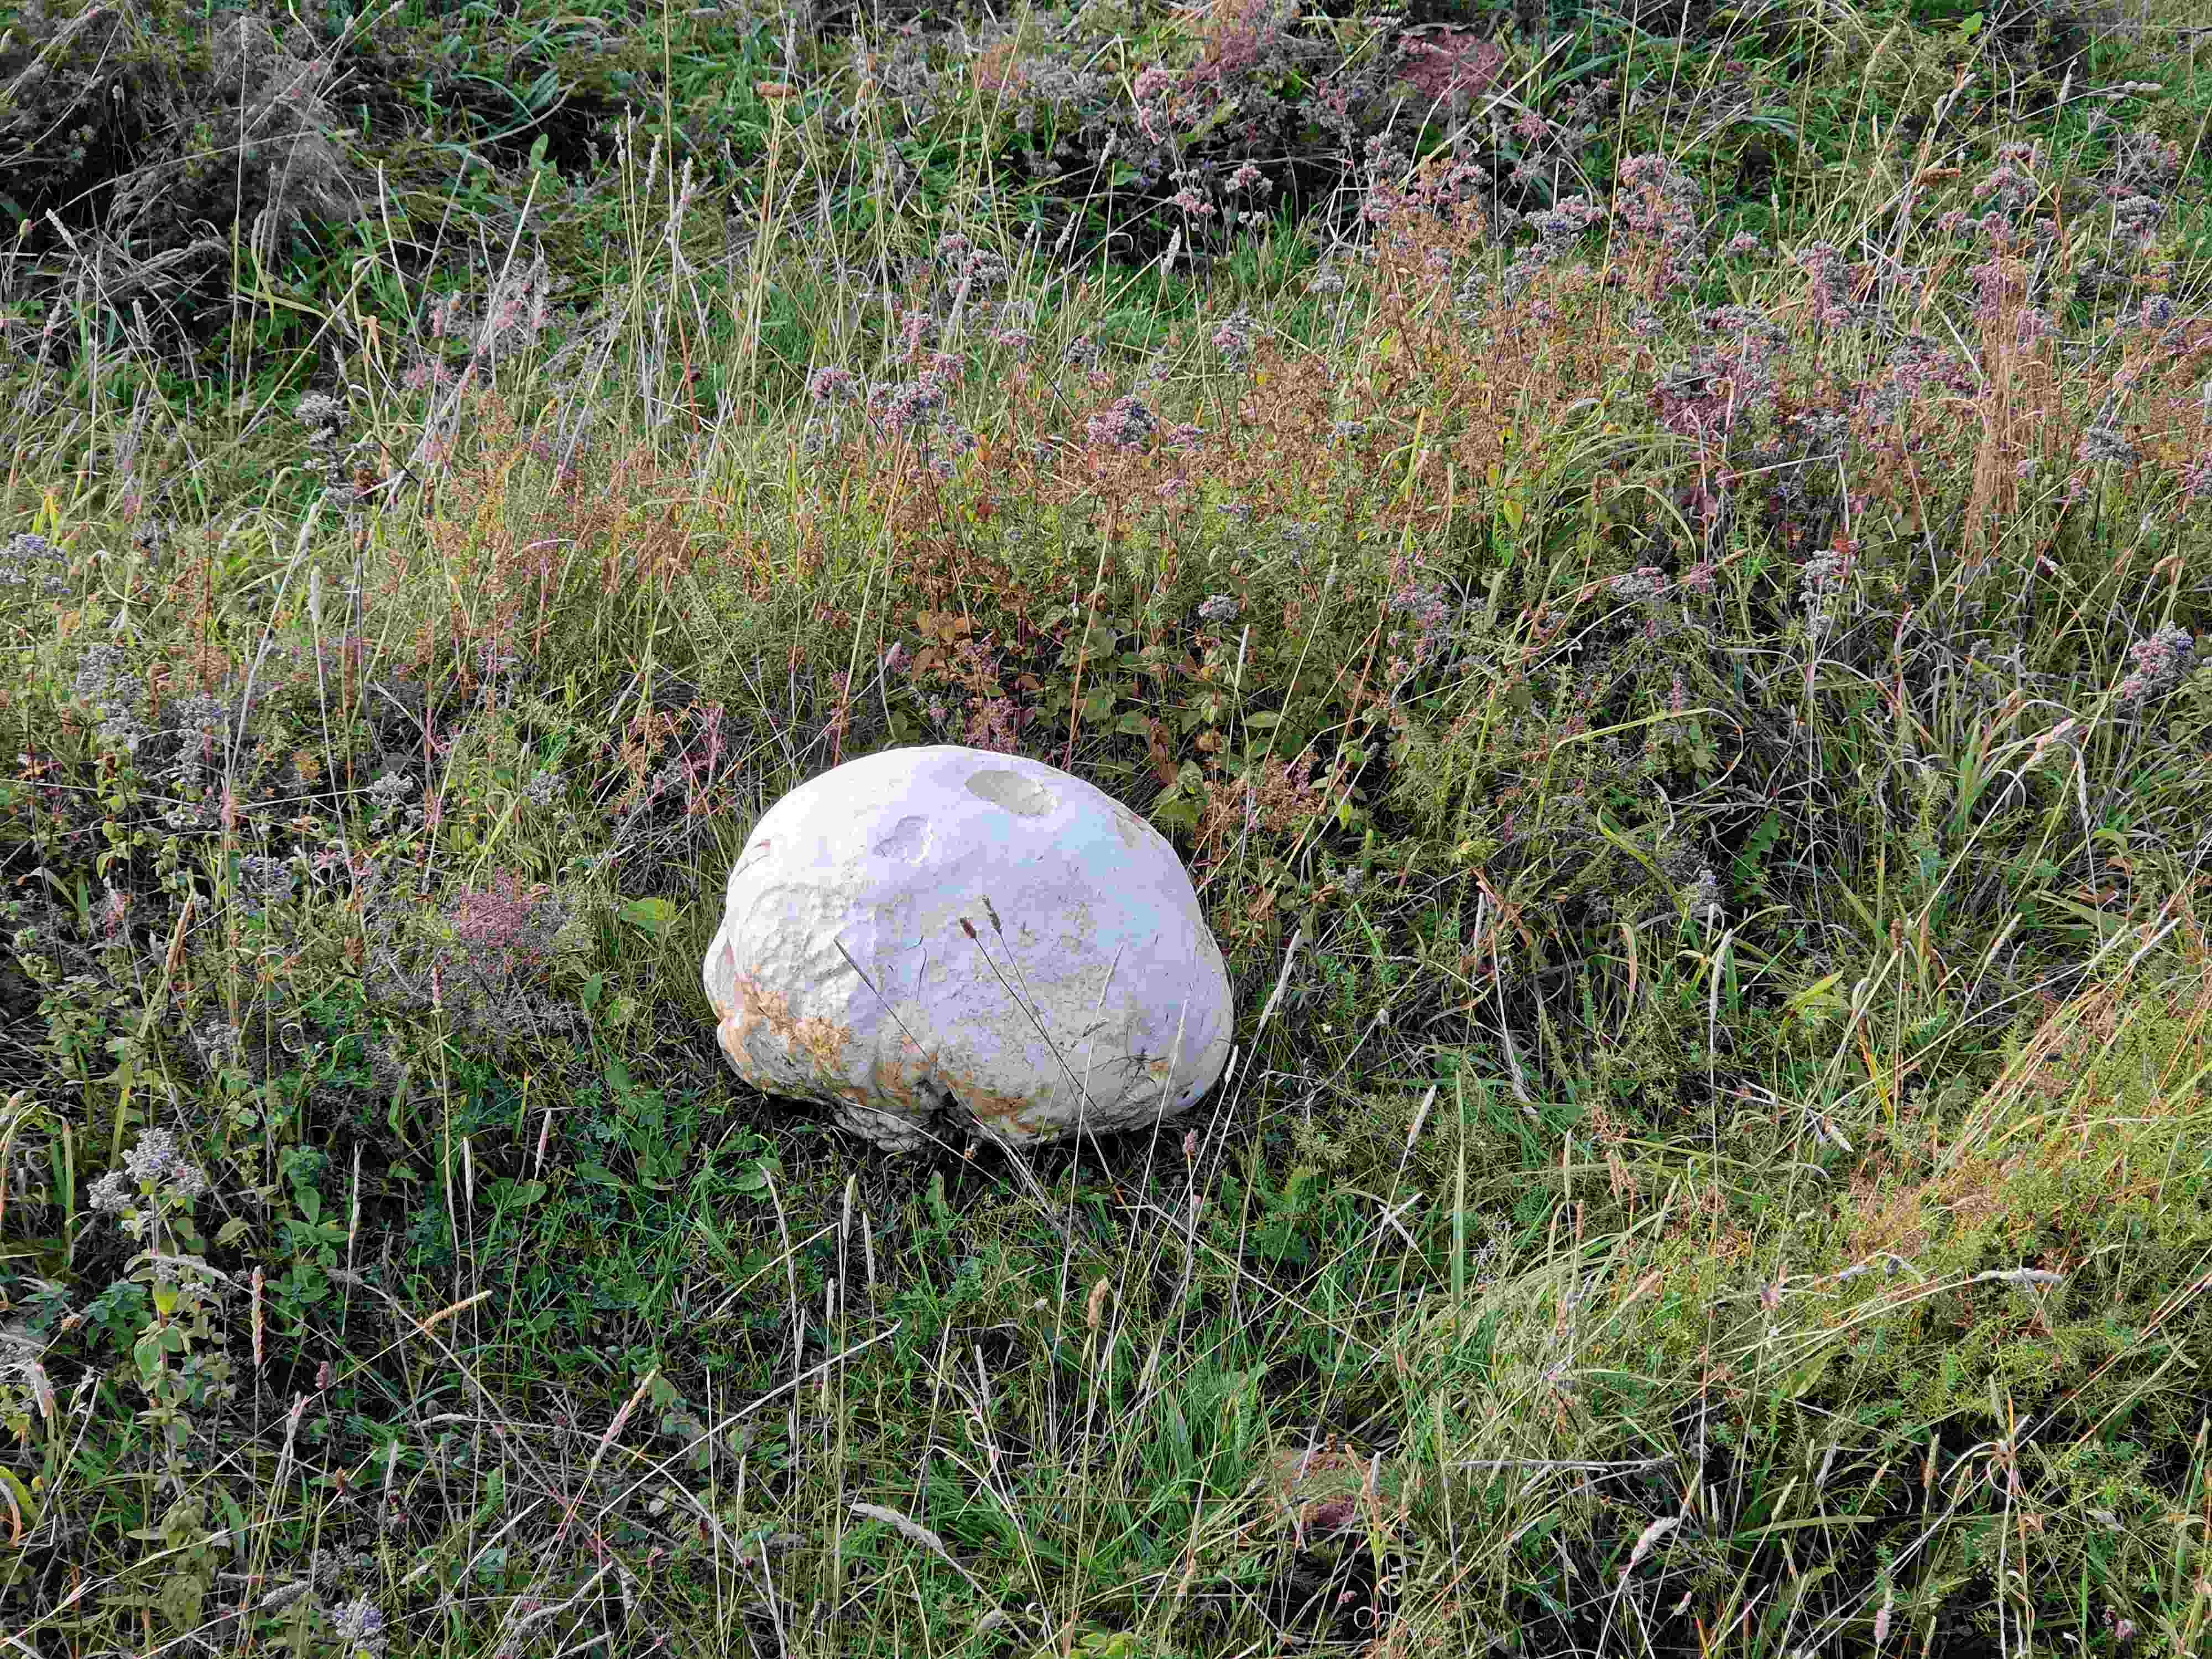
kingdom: Fungi
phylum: Basidiomycota
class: Agaricomycetes
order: Agaricales
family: Lycoperdaceae
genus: Calvatia
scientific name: Calvatia gigantea
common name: kæmpestøvbold
